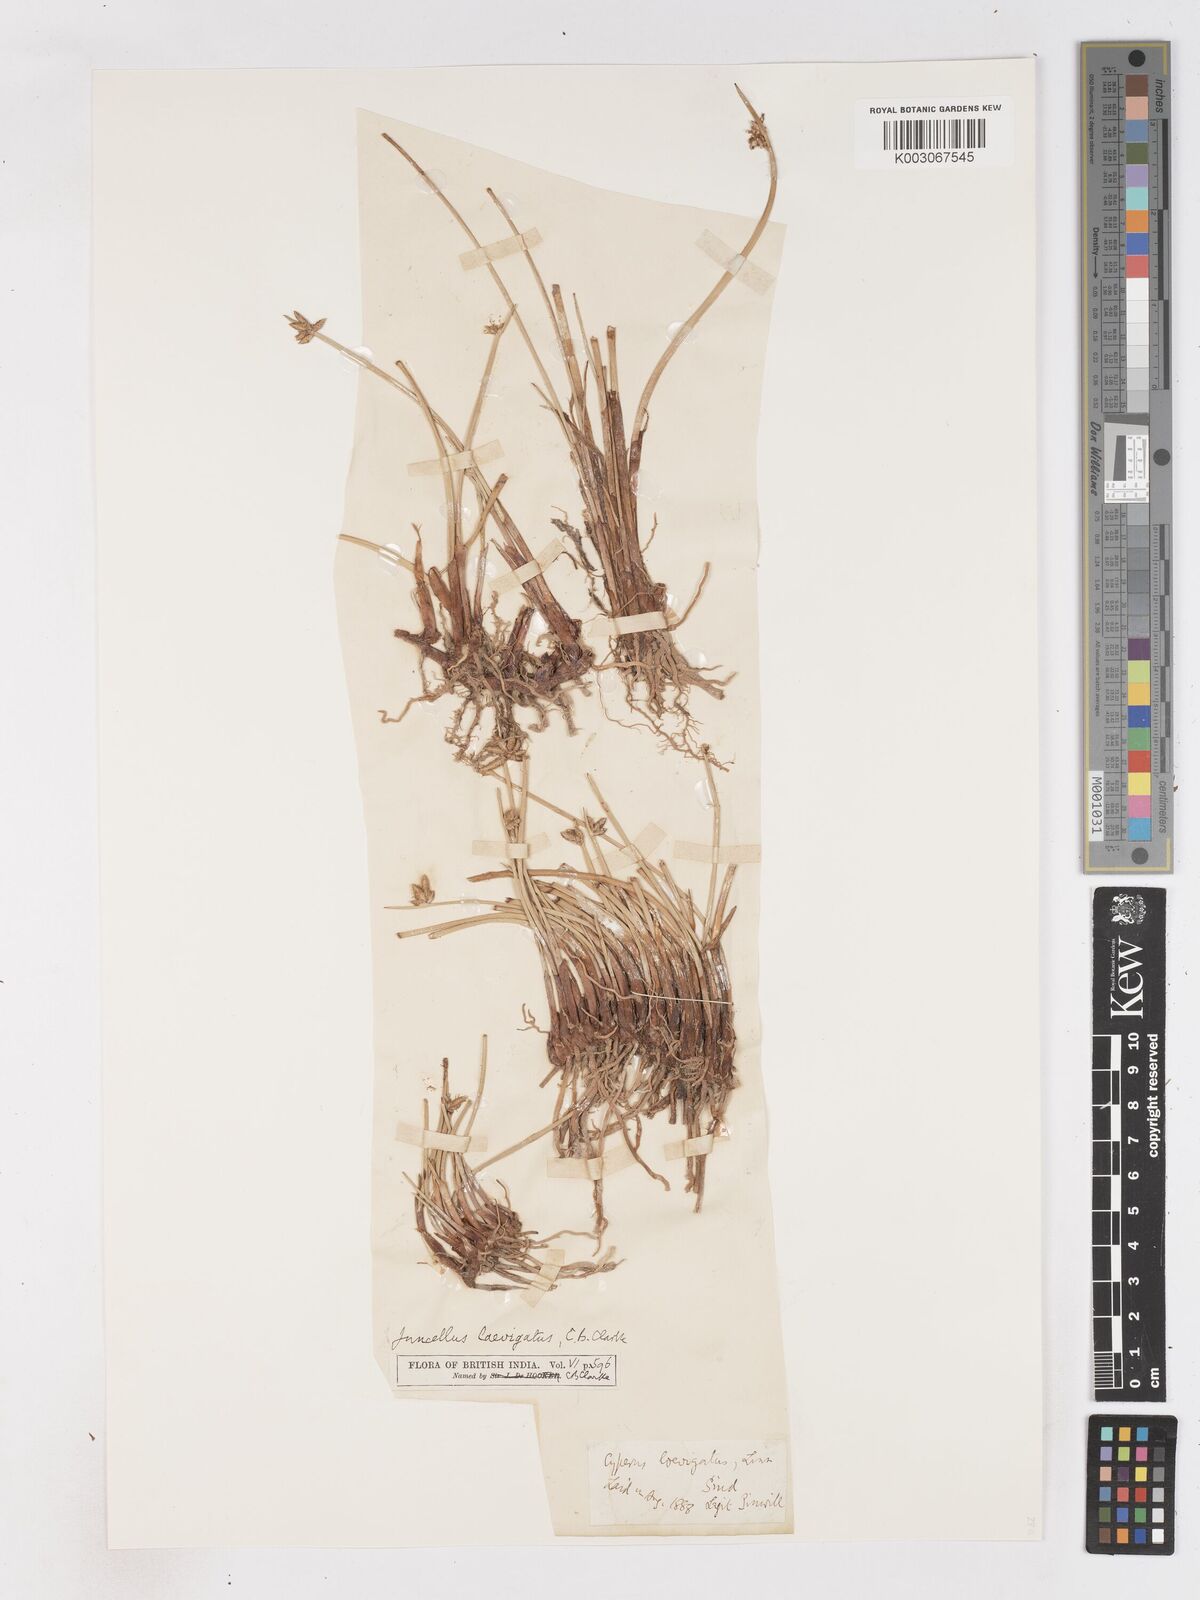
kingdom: Plantae
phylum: Tracheophyta
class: Liliopsida
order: Poales
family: Cyperaceae
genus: Cyperus
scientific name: Cyperus laevigatus
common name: Smooth flat sedge
